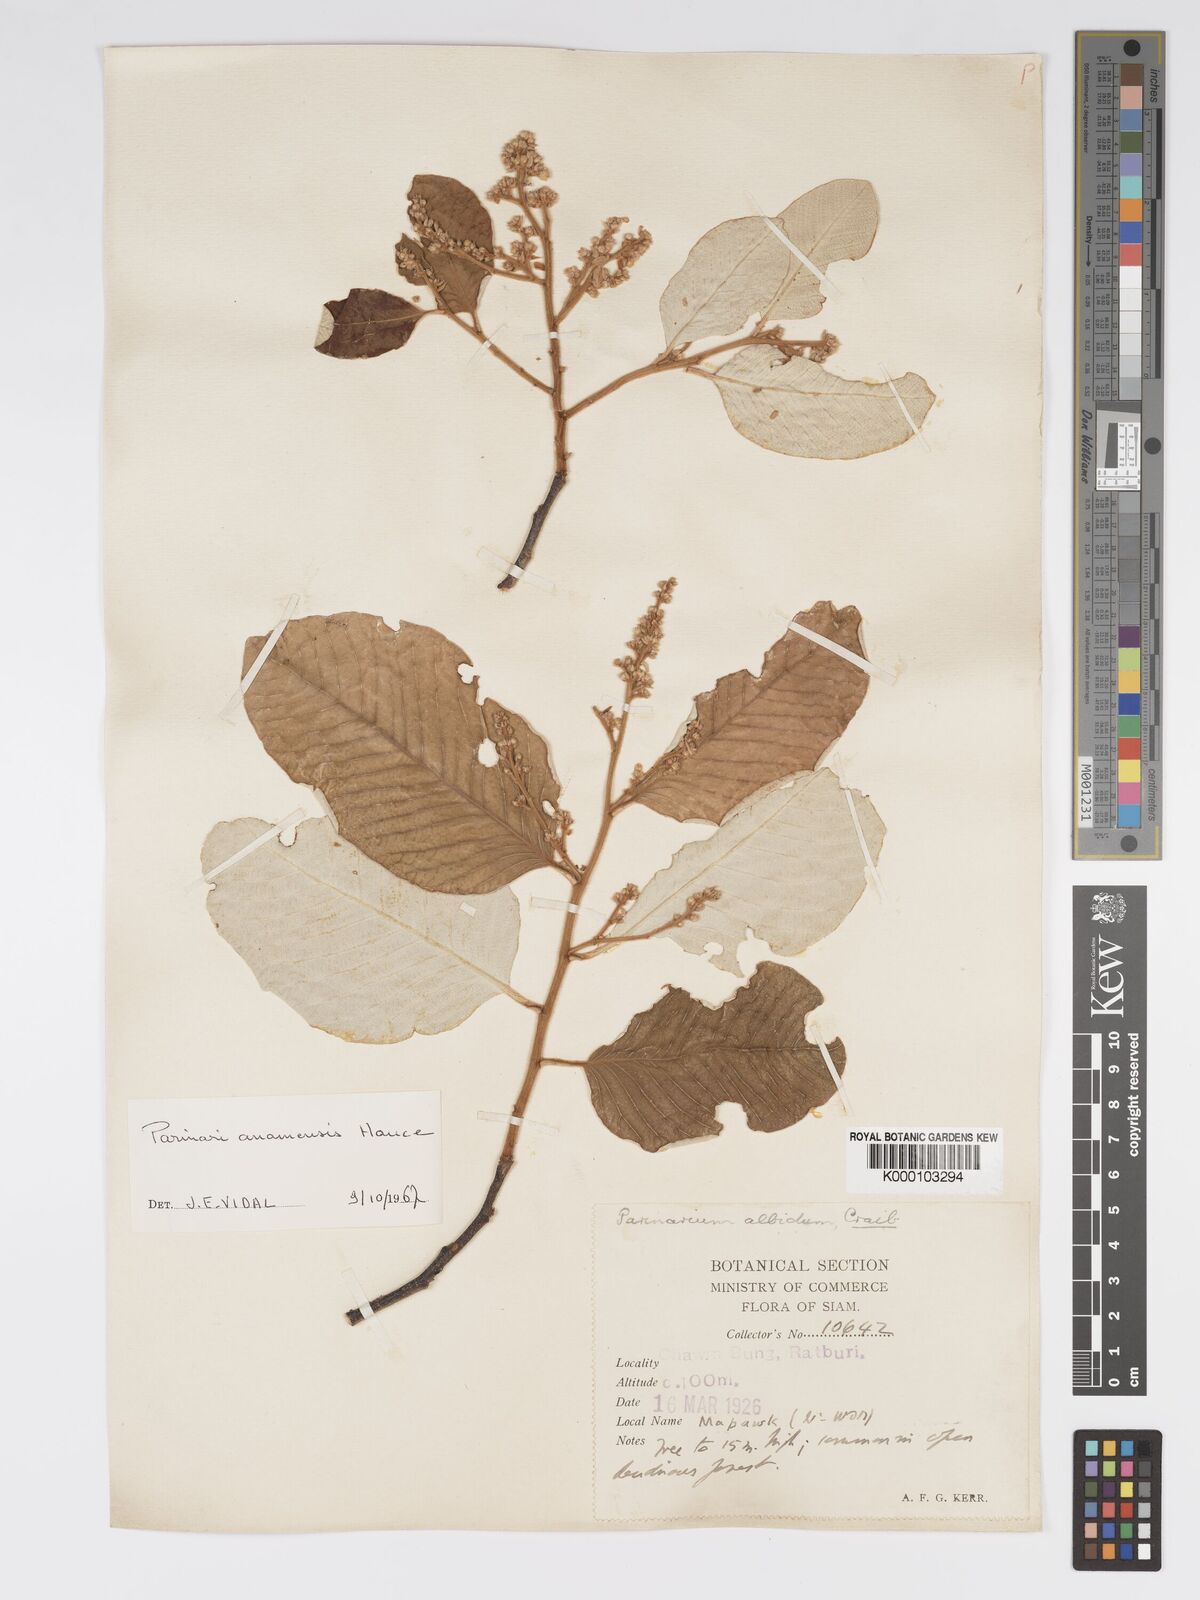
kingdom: Plantae
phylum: Tracheophyta
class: Magnoliopsida
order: Malpighiales
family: Chrysobalanaceae
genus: Parinari
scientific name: Parinari anamensis
